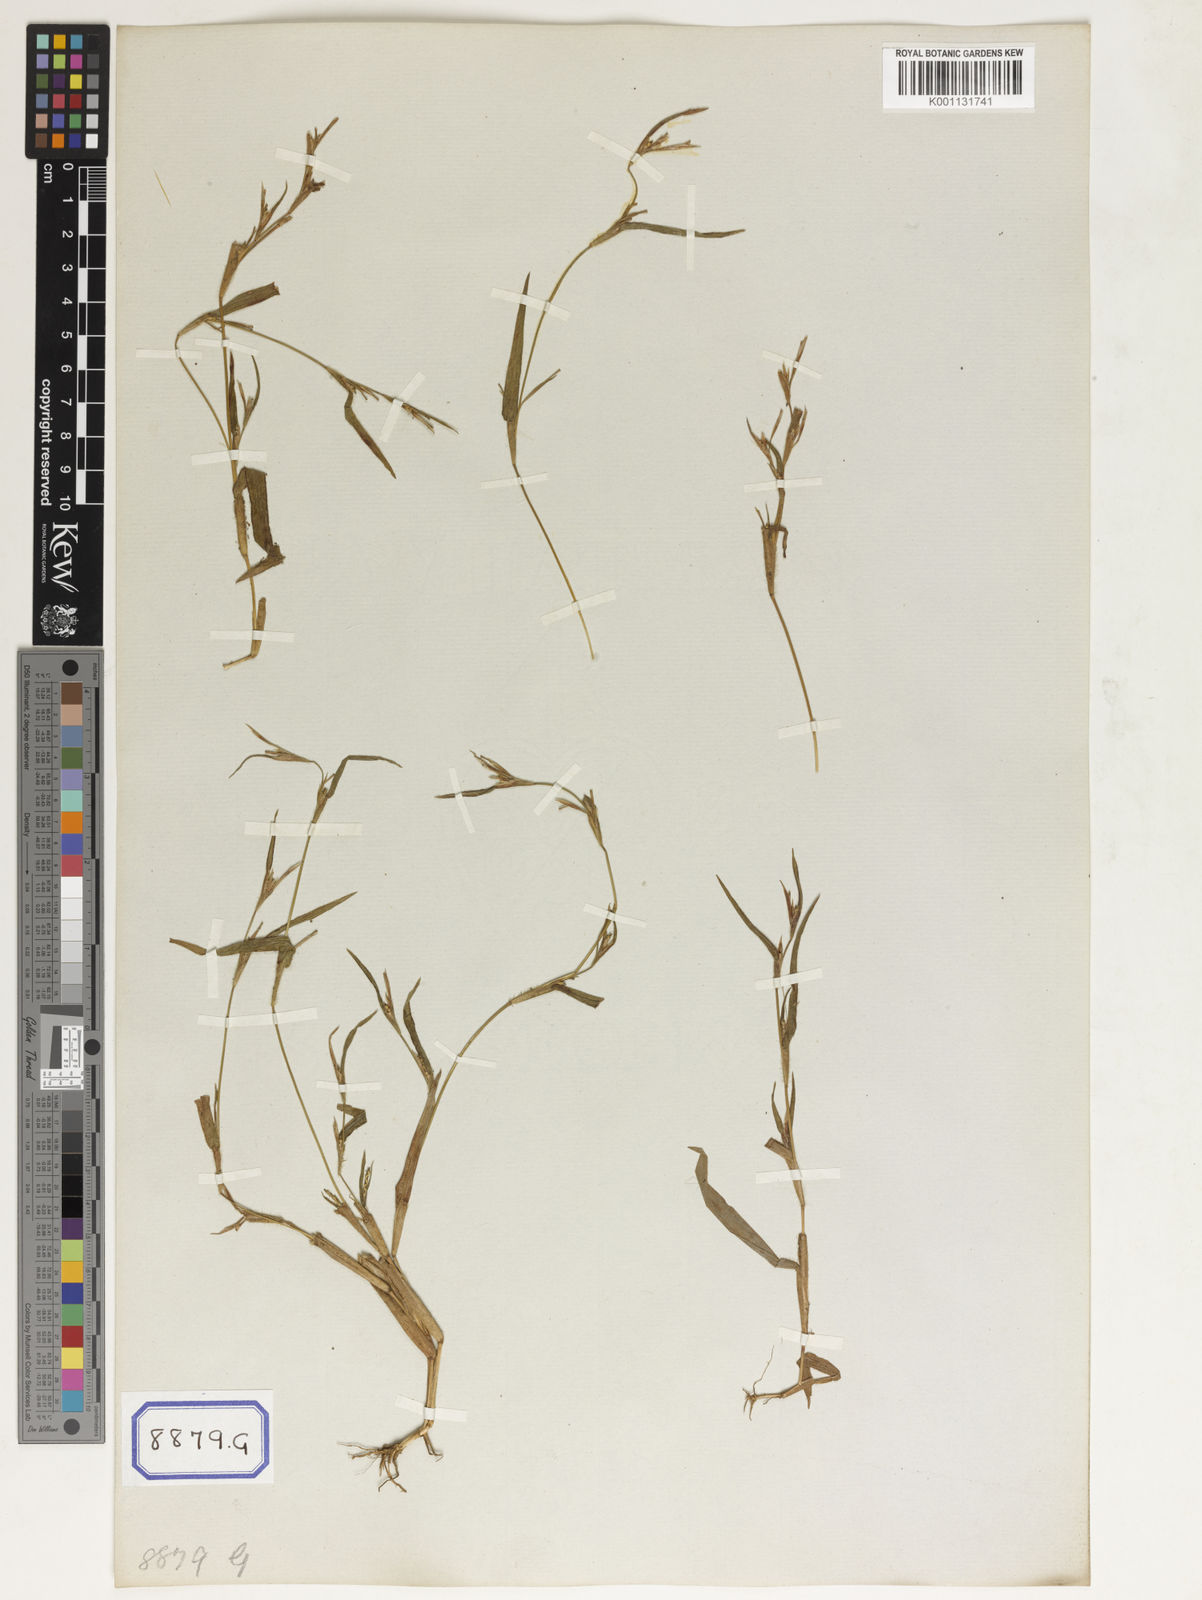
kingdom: Plantae
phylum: Tracheophyta
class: Liliopsida
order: Poales
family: Poaceae
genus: Manisuris
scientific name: Manisuris
